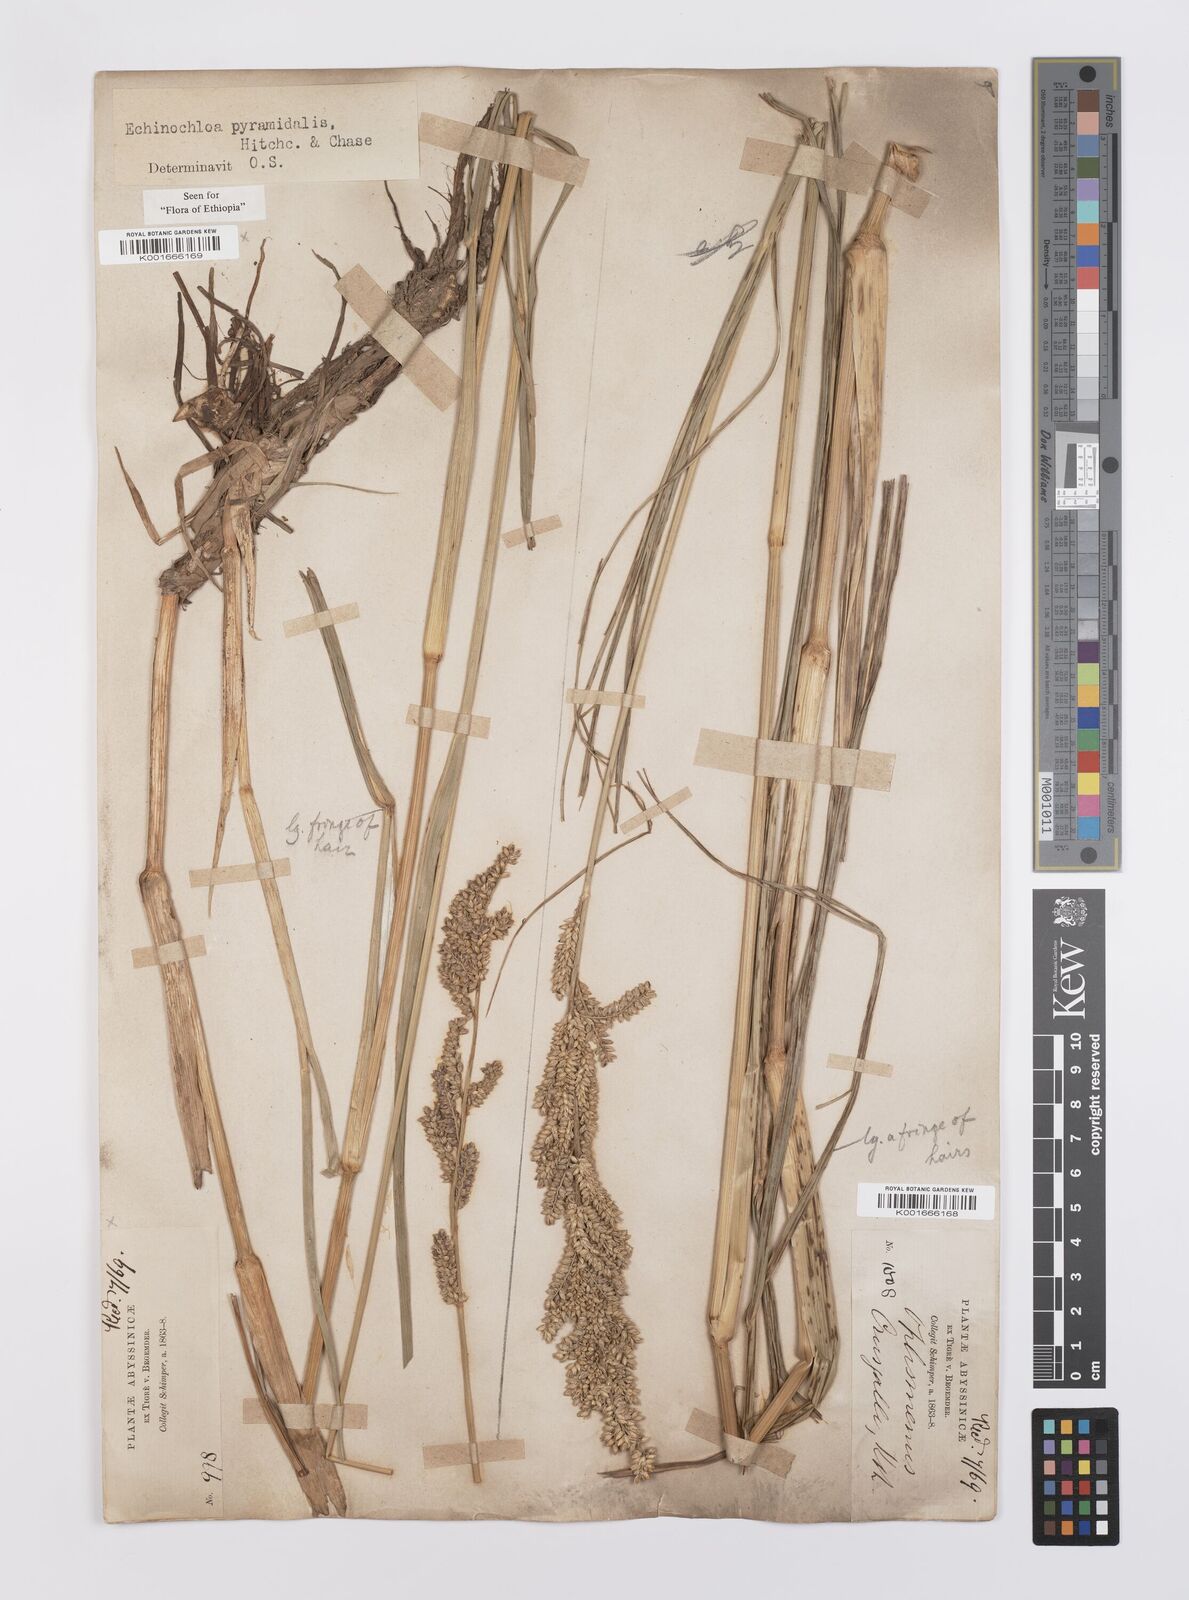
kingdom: Plantae
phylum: Tracheophyta
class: Liliopsida
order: Poales
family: Poaceae
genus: Echinochloa
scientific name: Echinochloa pyramidalis
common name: Antelope grass
